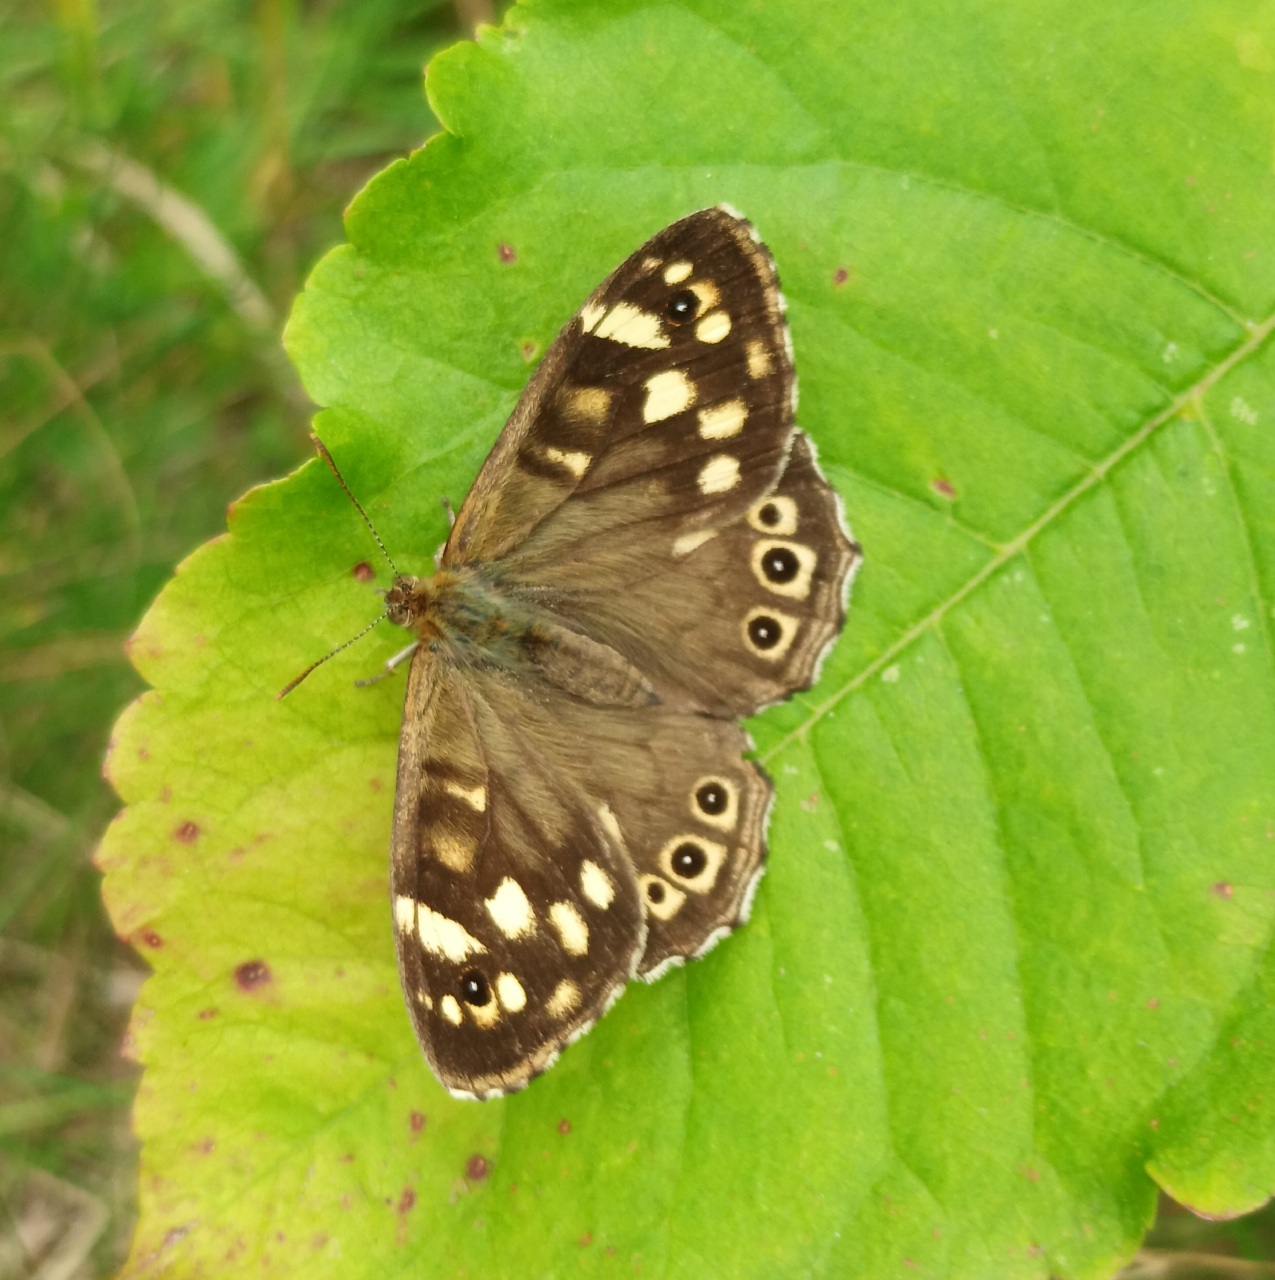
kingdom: Animalia
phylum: Arthropoda
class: Insecta
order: Lepidoptera
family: Nymphalidae
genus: Pararge
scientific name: Pararge aegeria
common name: Skovrandøje
